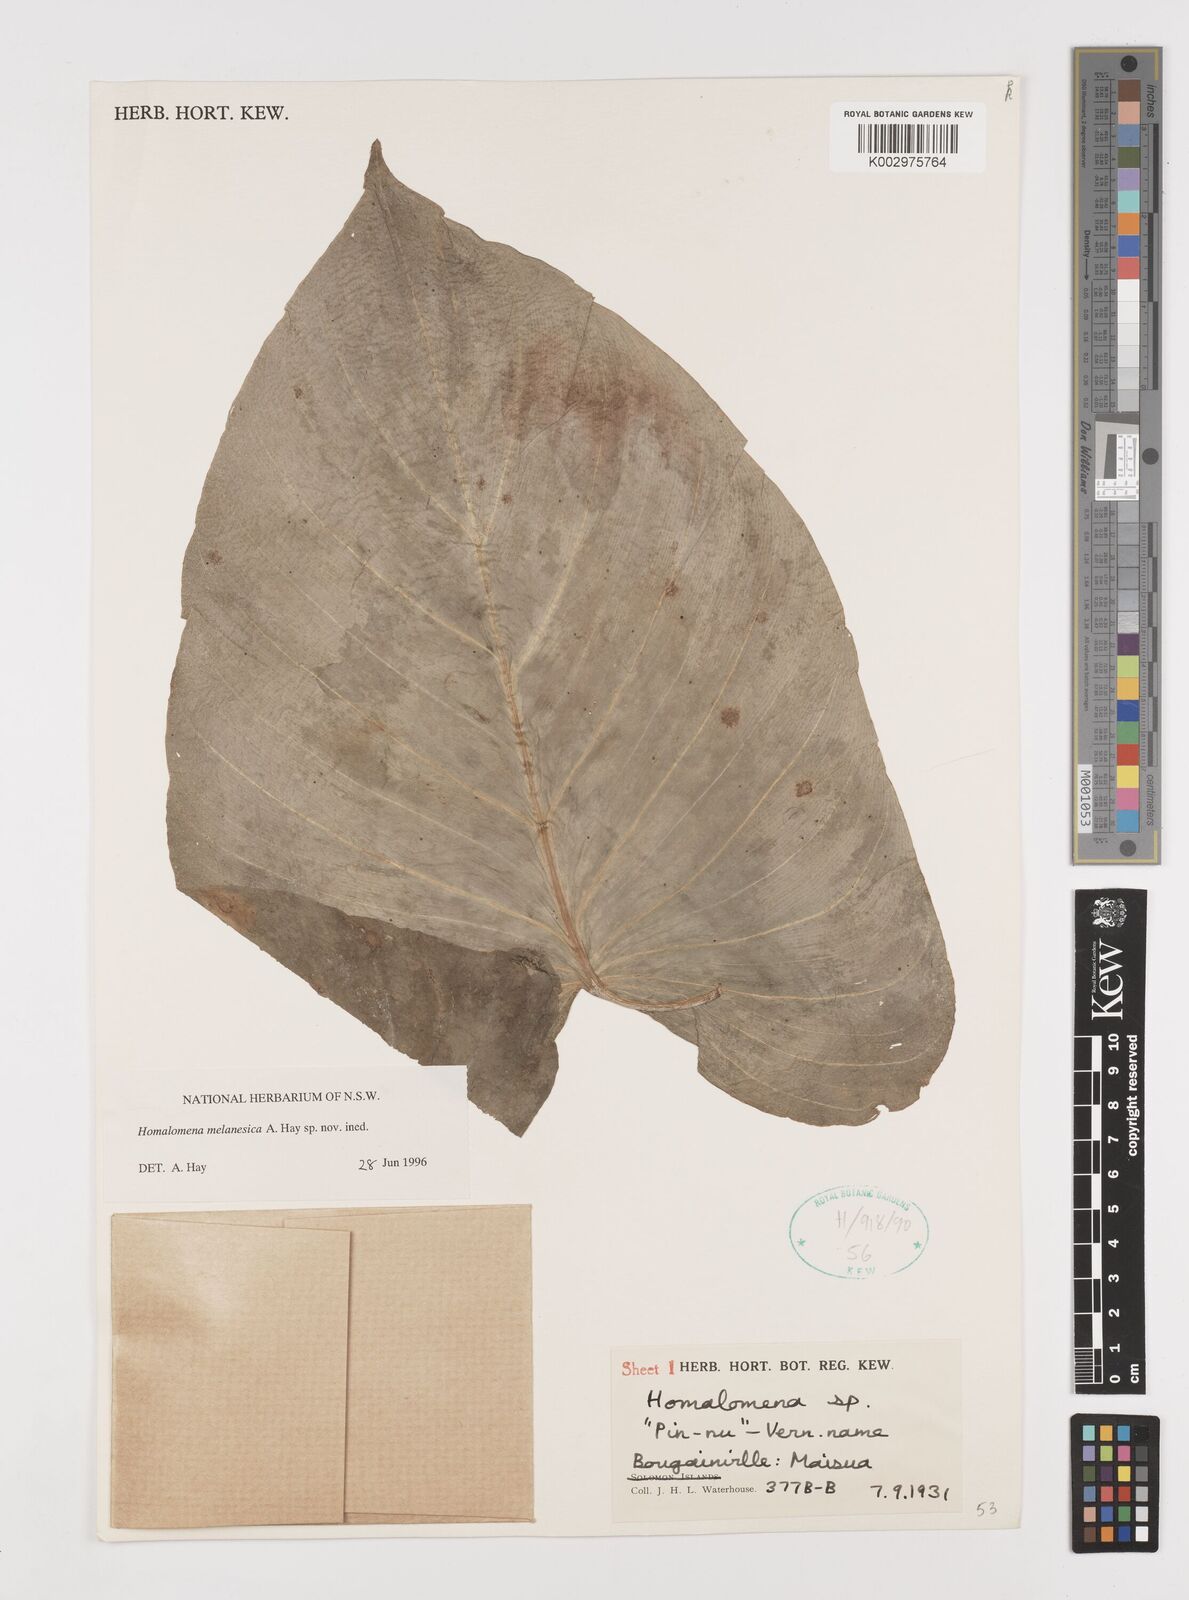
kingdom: Plantae
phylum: Tracheophyta
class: Liliopsida
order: Alismatales
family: Araceae
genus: Homalomena
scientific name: Homalomena melanesica
